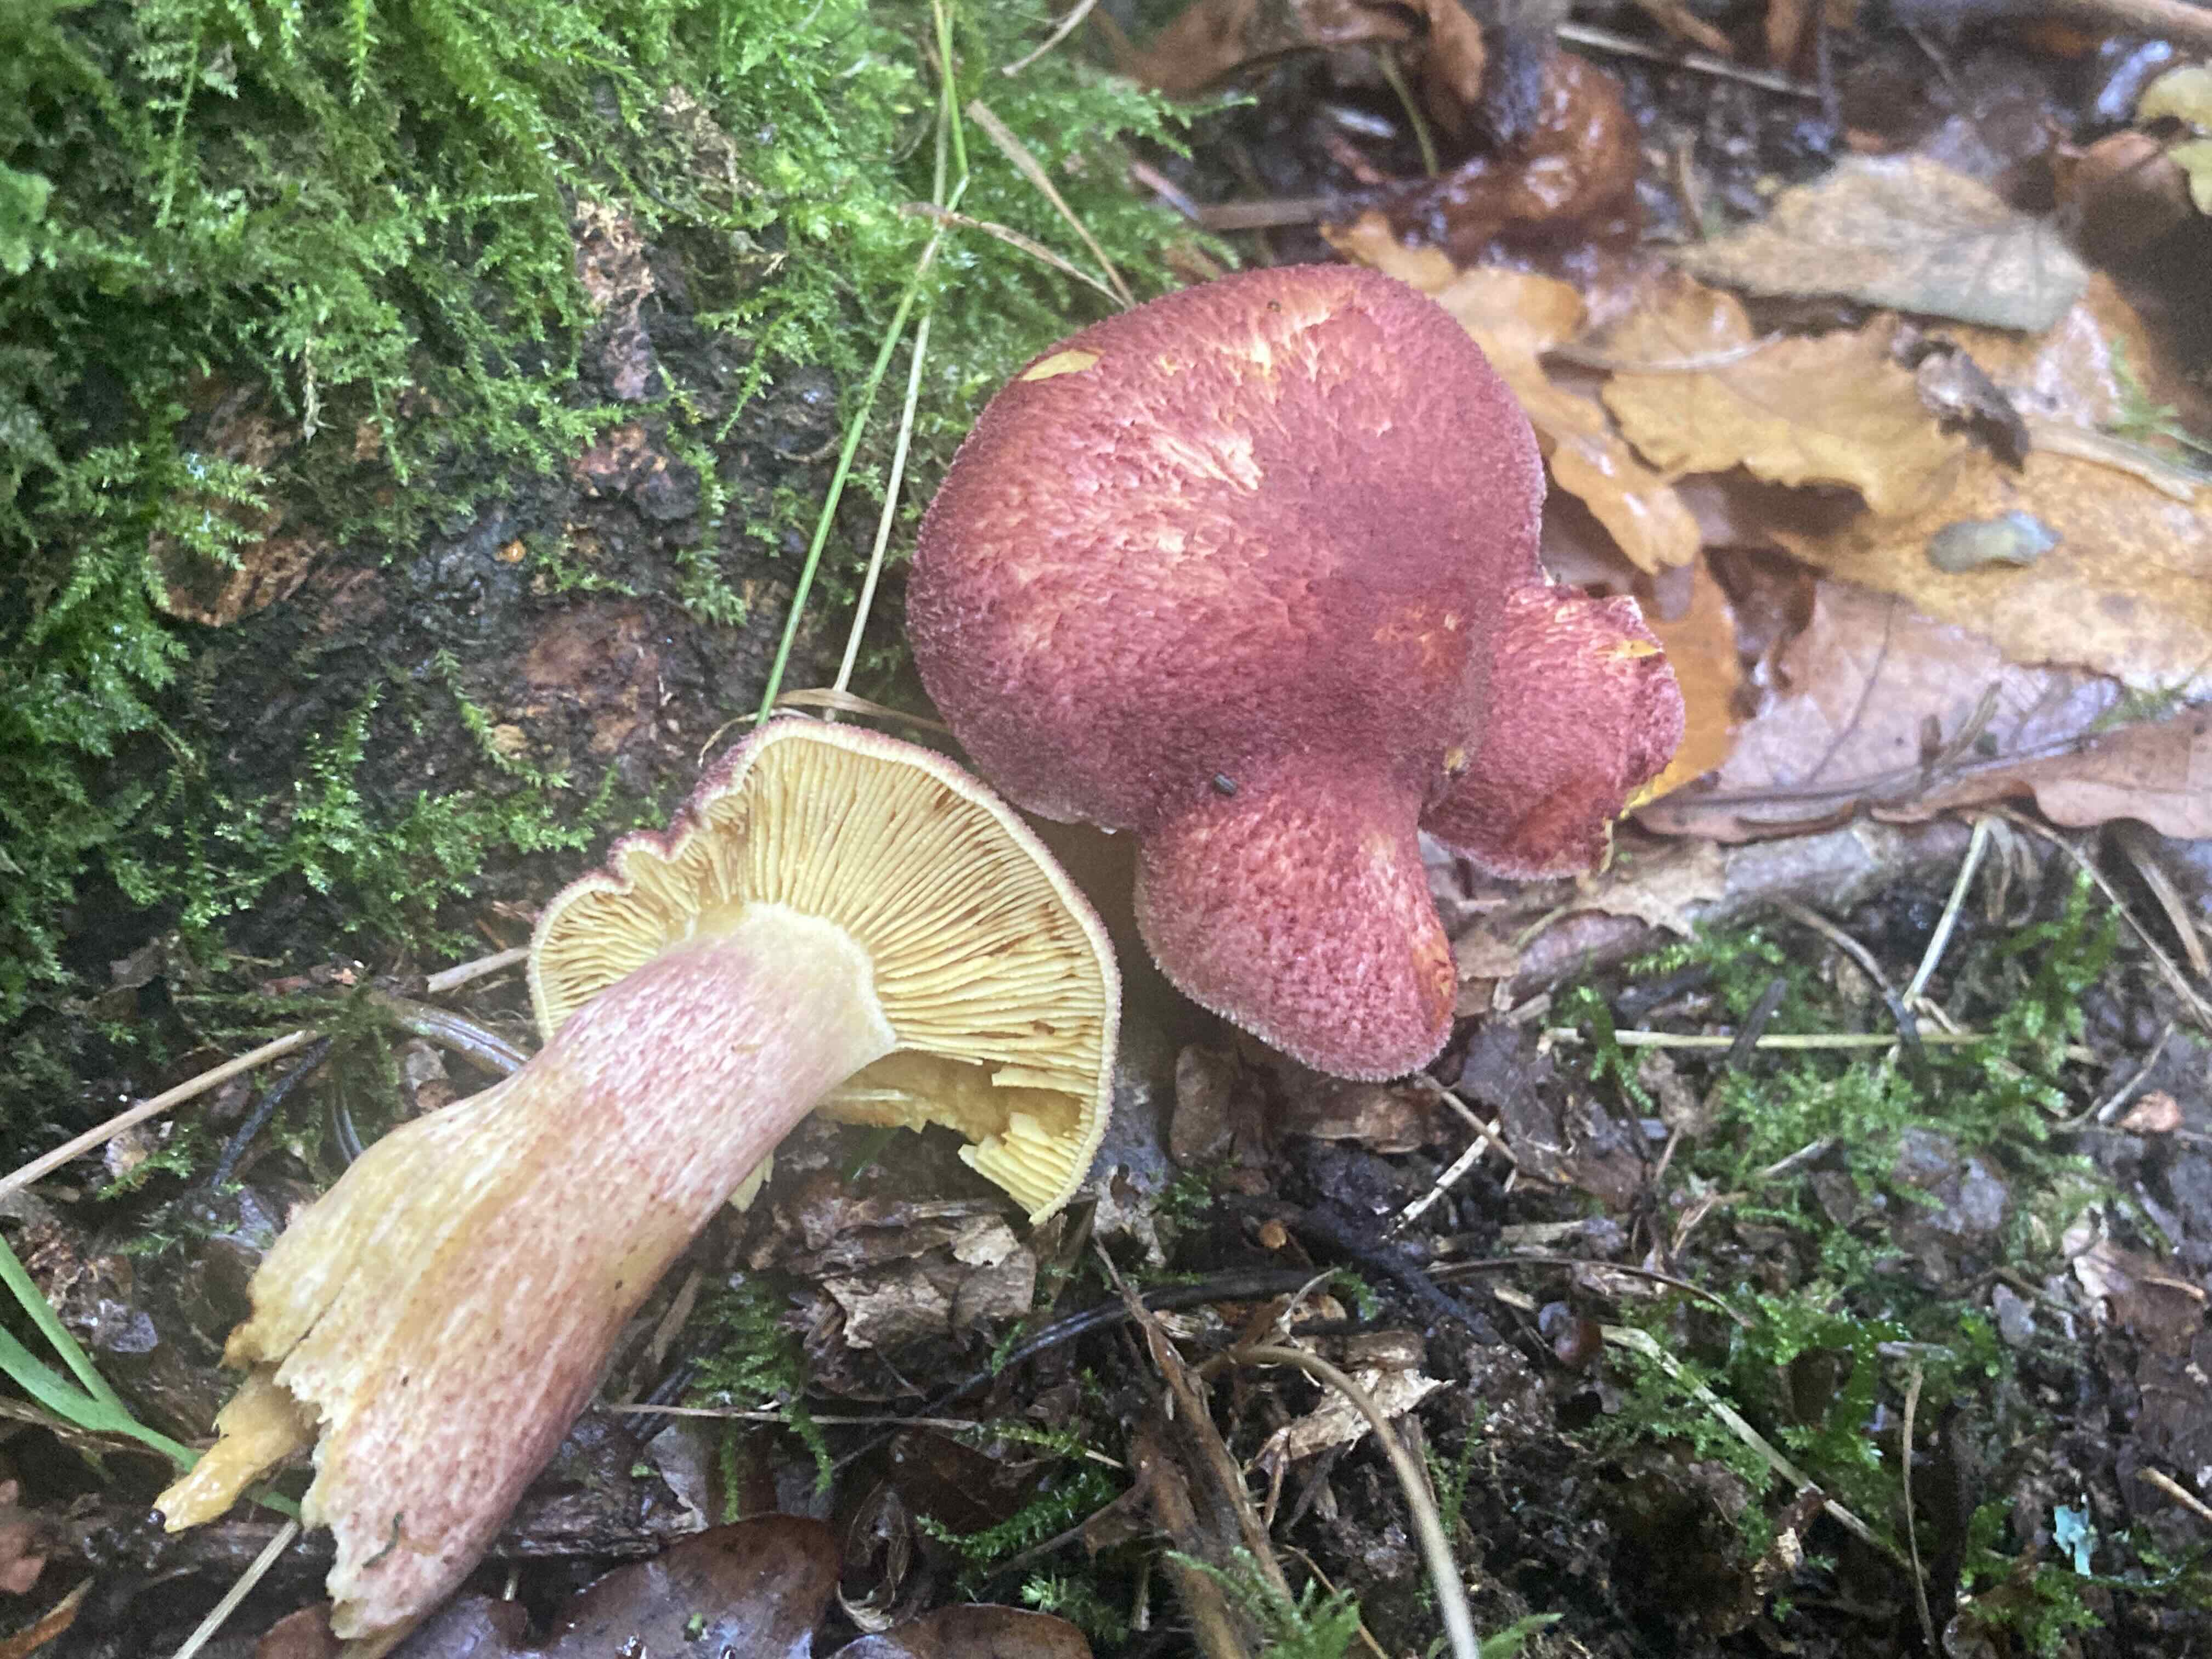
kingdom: Fungi
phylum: Basidiomycota
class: Agaricomycetes
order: Agaricales
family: Tricholomataceae
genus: Tricholomopsis
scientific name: Tricholomopsis rutilans
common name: purpur-væbnerhat
